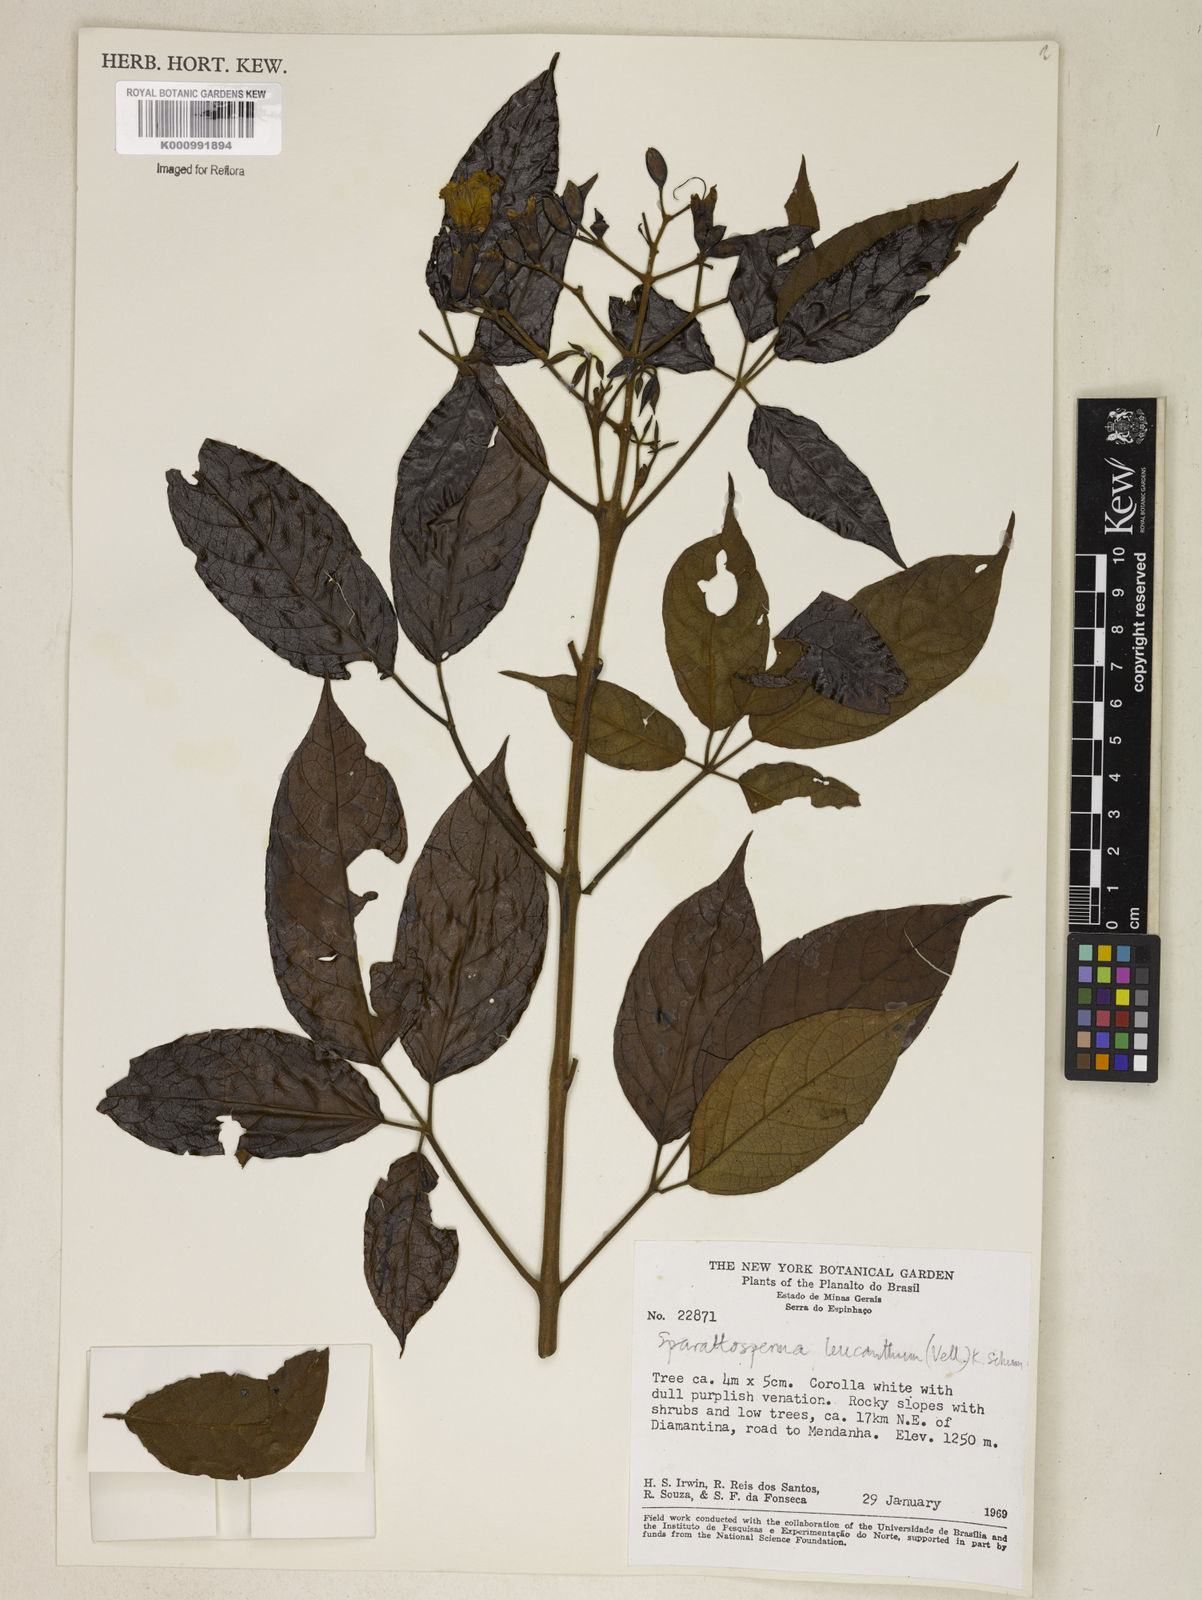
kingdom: Plantae
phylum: Tracheophyta
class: Magnoliopsida
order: Lamiales
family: Bignoniaceae
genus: Sparattosperma
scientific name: Sparattosperma leucanthum
